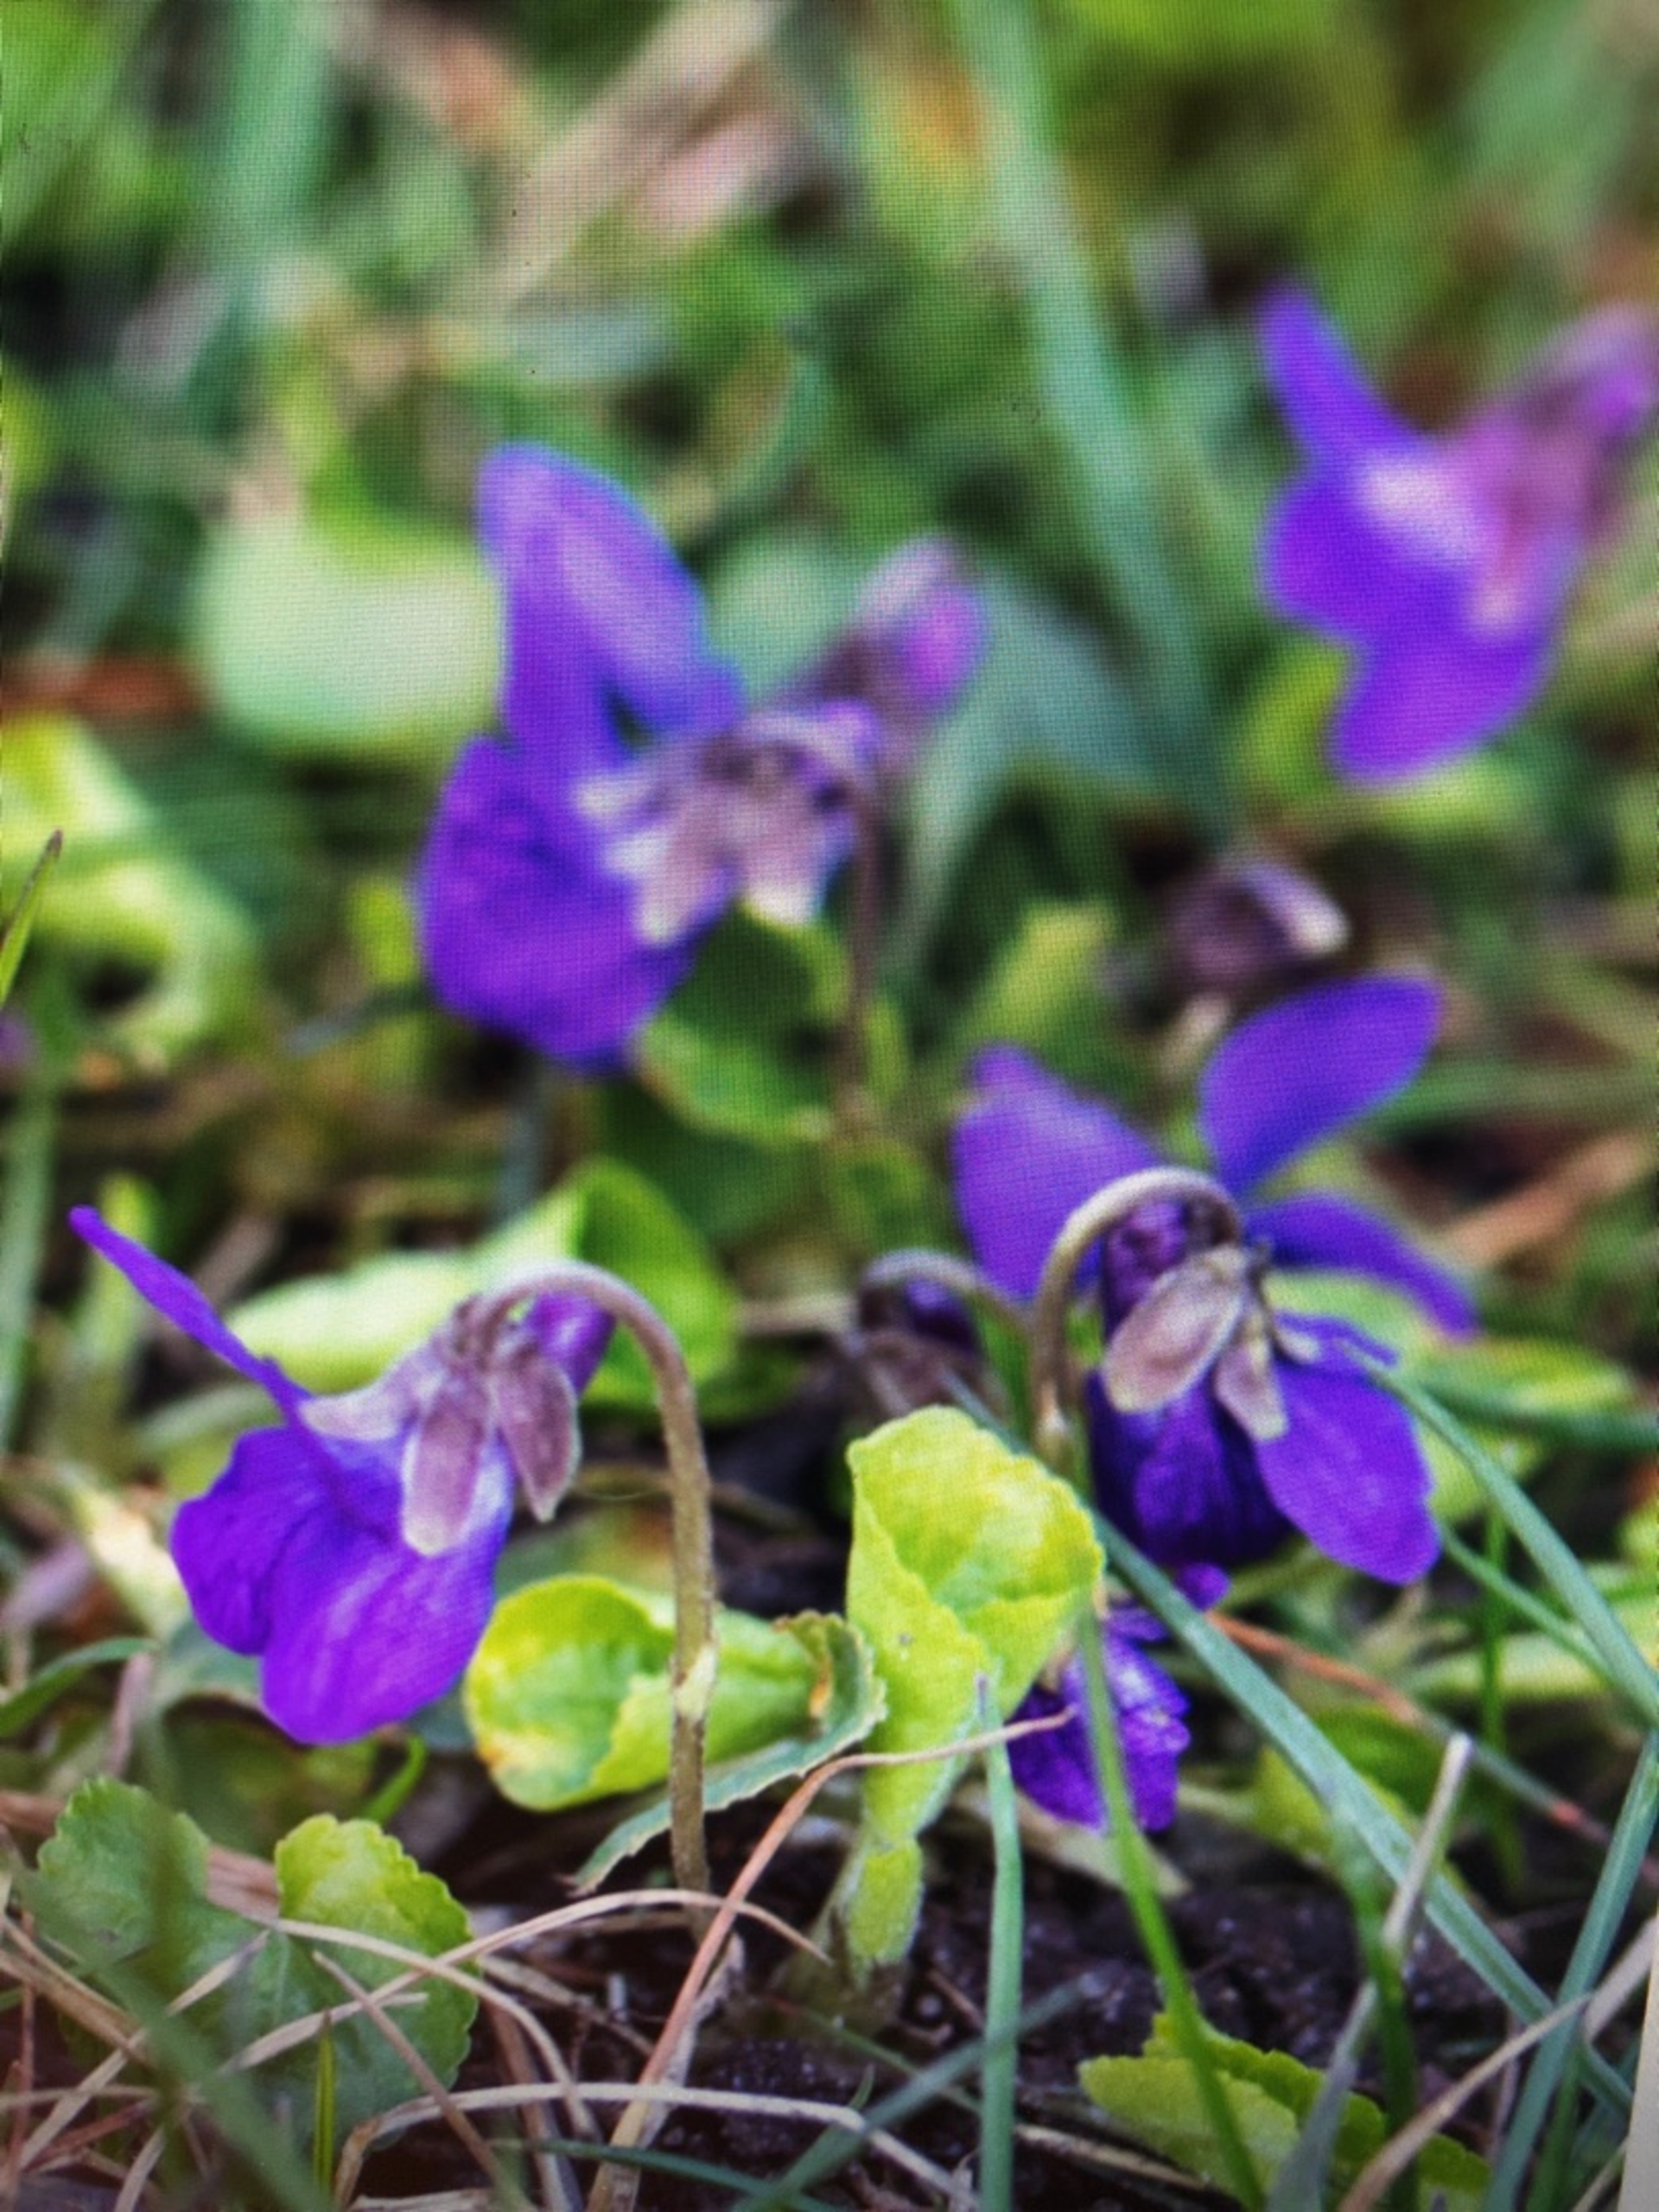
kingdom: Plantae
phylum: Tracheophyta
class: Magnoliopsida
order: Malpighiales
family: Violaceae
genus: Viola
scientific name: Viola odorata
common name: Marts-viol
